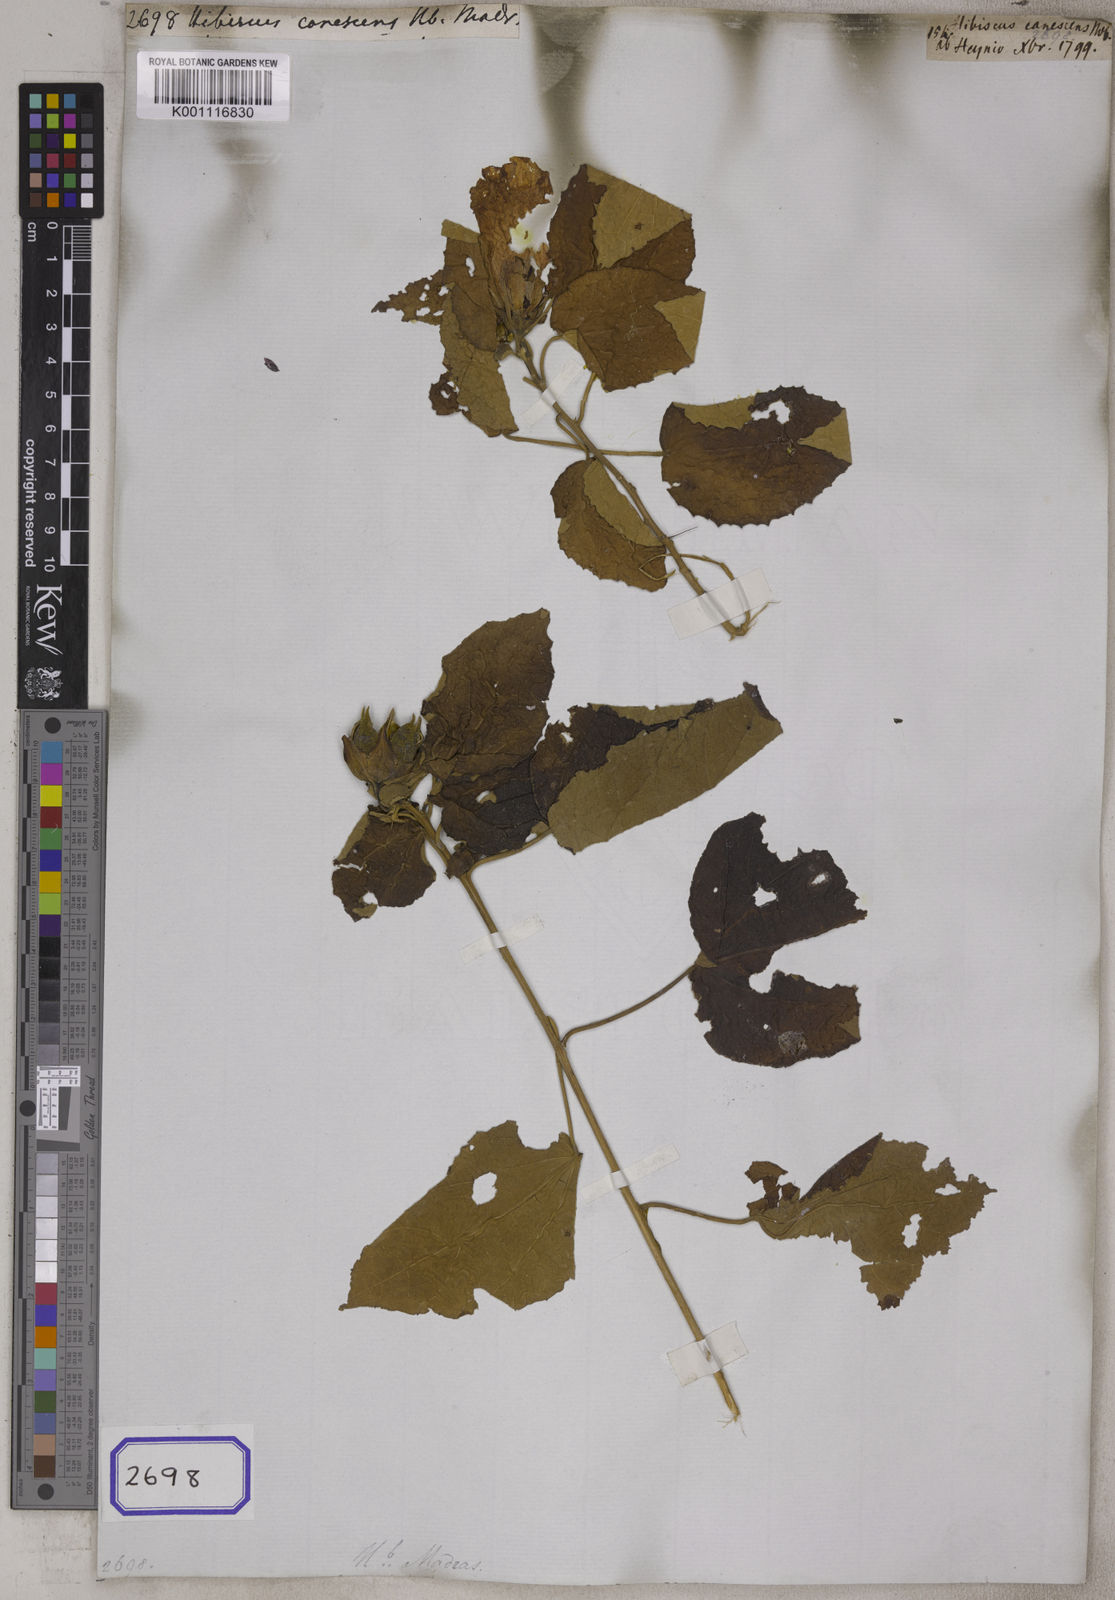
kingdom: Plantae
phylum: Tracheophyta
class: Magnoliopsida
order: Malvales
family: Malvaceae
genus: Hibiscus
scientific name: Hibiscus
